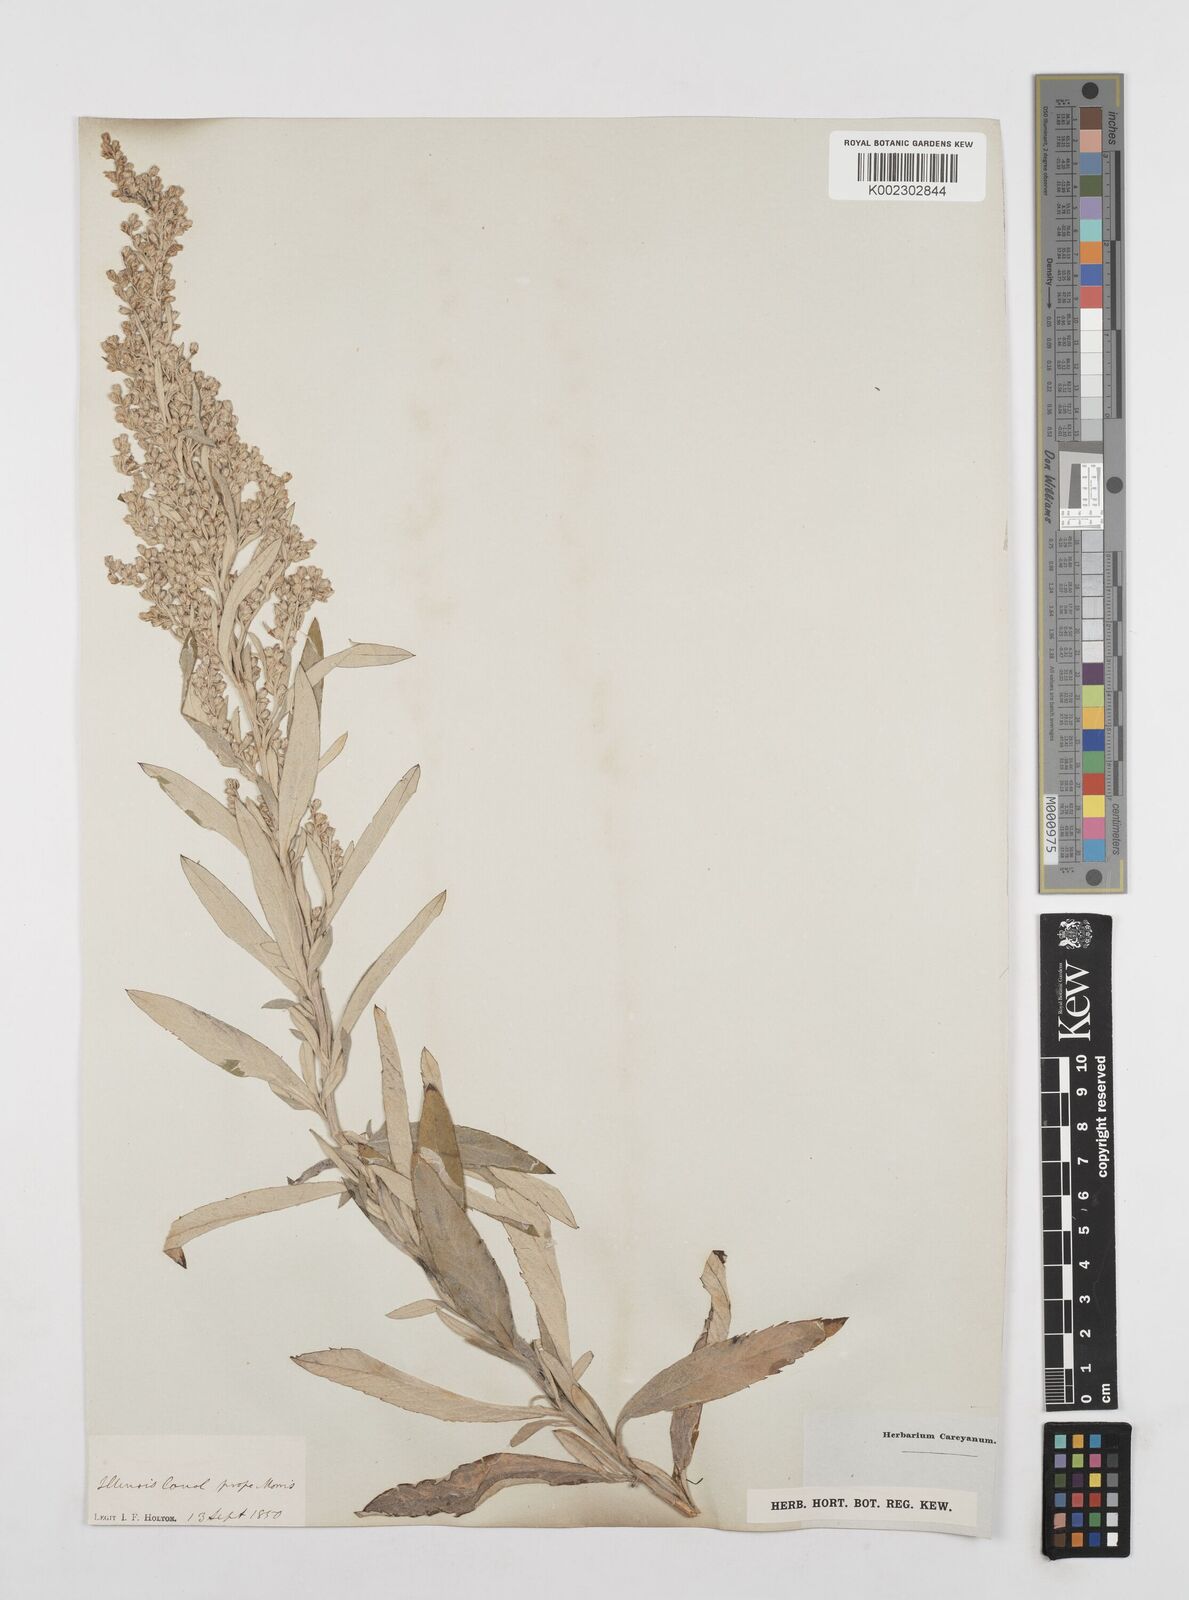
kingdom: Plantae
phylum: Tracheophyta
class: Magnoliopsida
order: Asterales
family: Asteraceae
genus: Artemisia
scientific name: Artemisia ludoviciana
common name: Western mugwort
